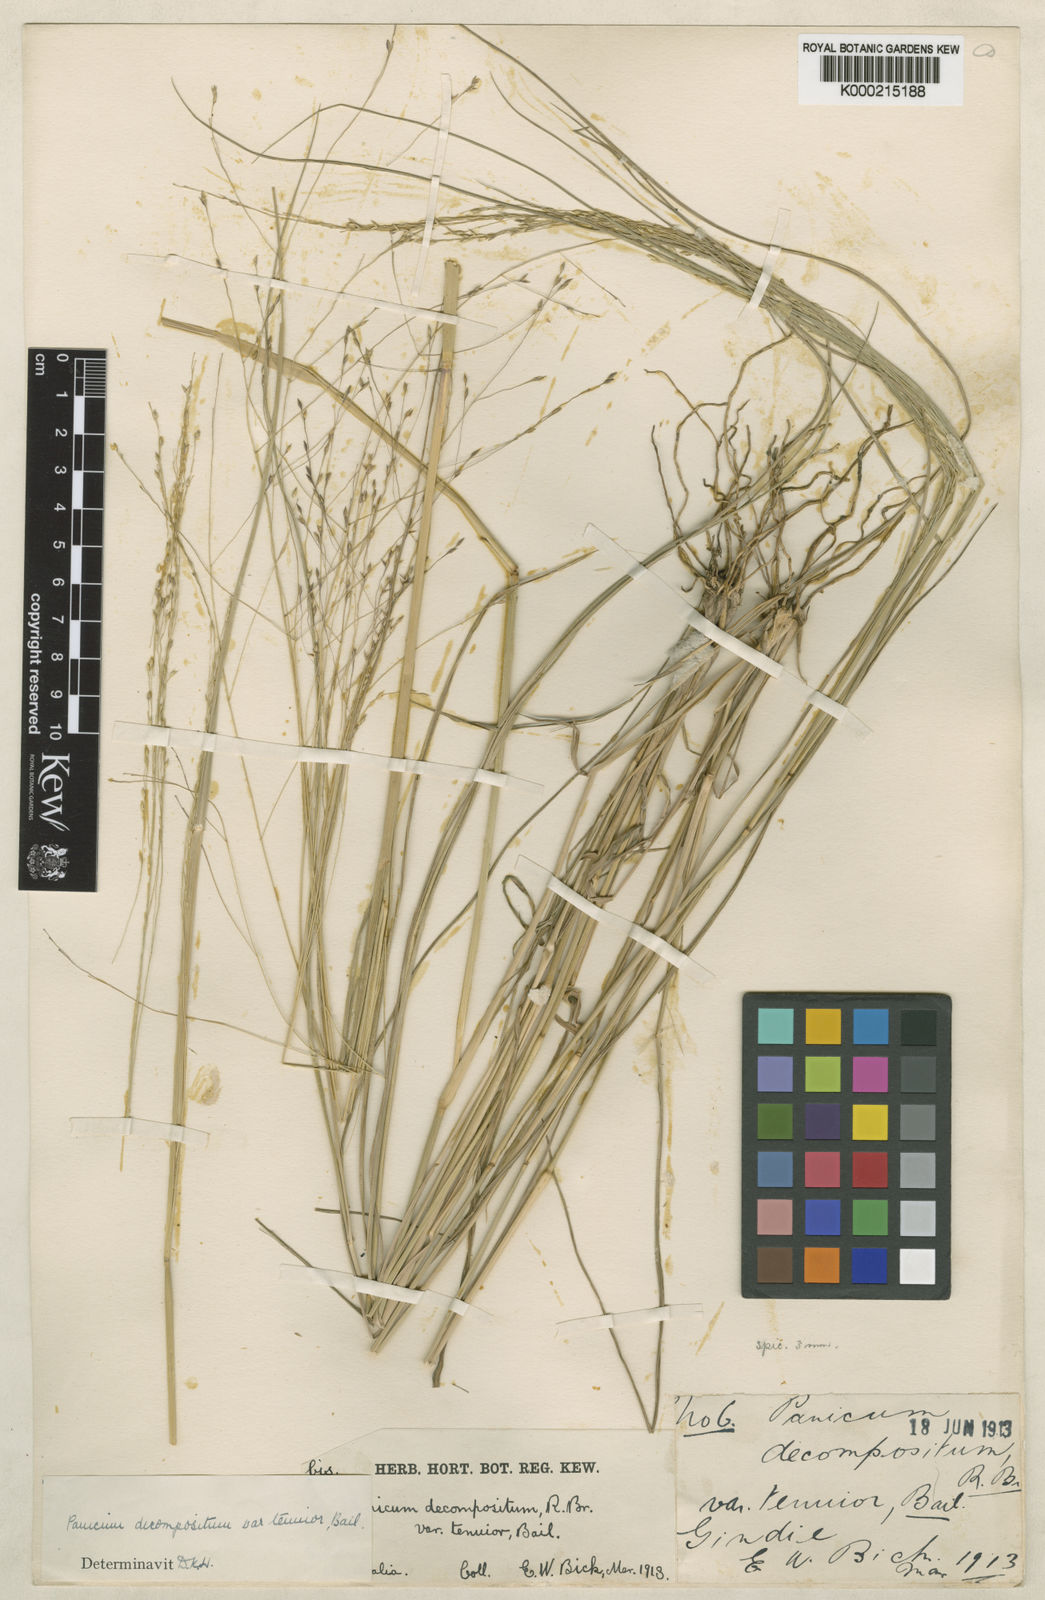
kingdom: Plantae
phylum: Tracheophyta
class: Liliopsida
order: Poales
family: Poaceae
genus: Panicum
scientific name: Panicum decompositum
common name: Australian millet
